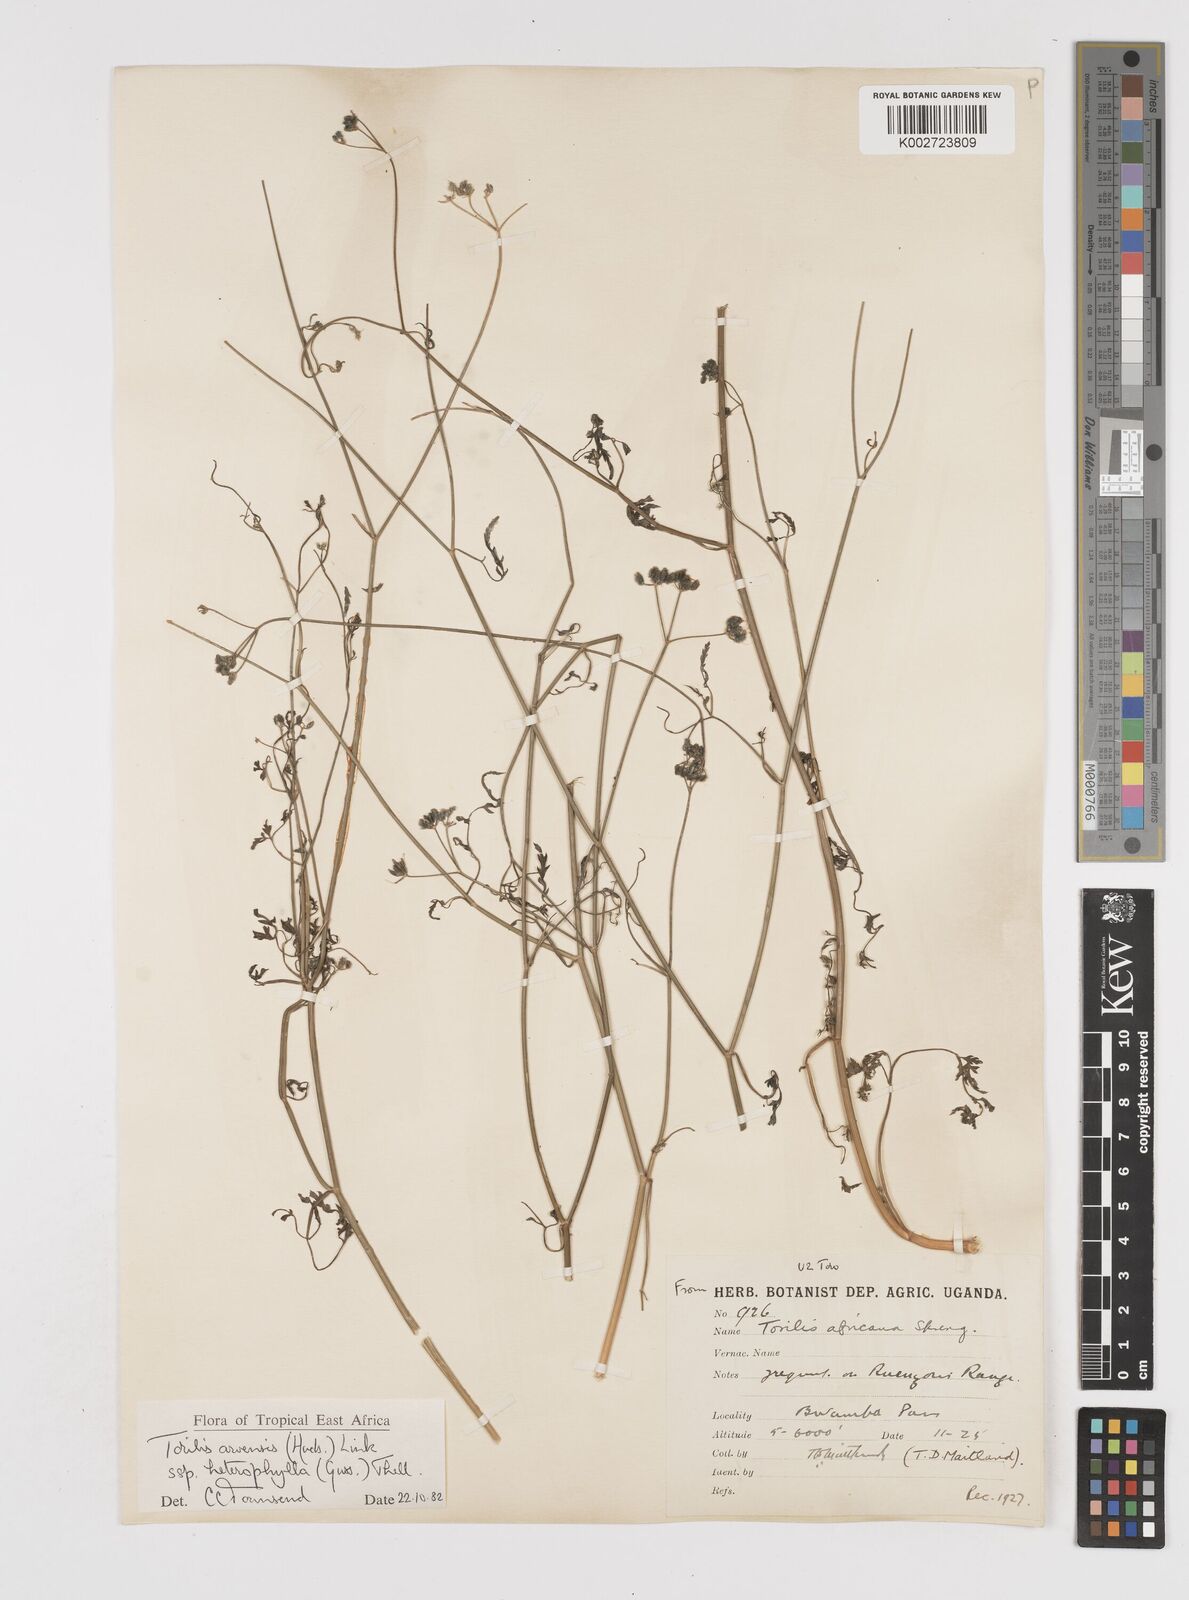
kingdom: Plantae
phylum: Tracheophyta
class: Magnoliopsida
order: Apiales
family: Apiaceae
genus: Torilis
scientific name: Torilis arvensis
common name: Spreading hedge-parsley
